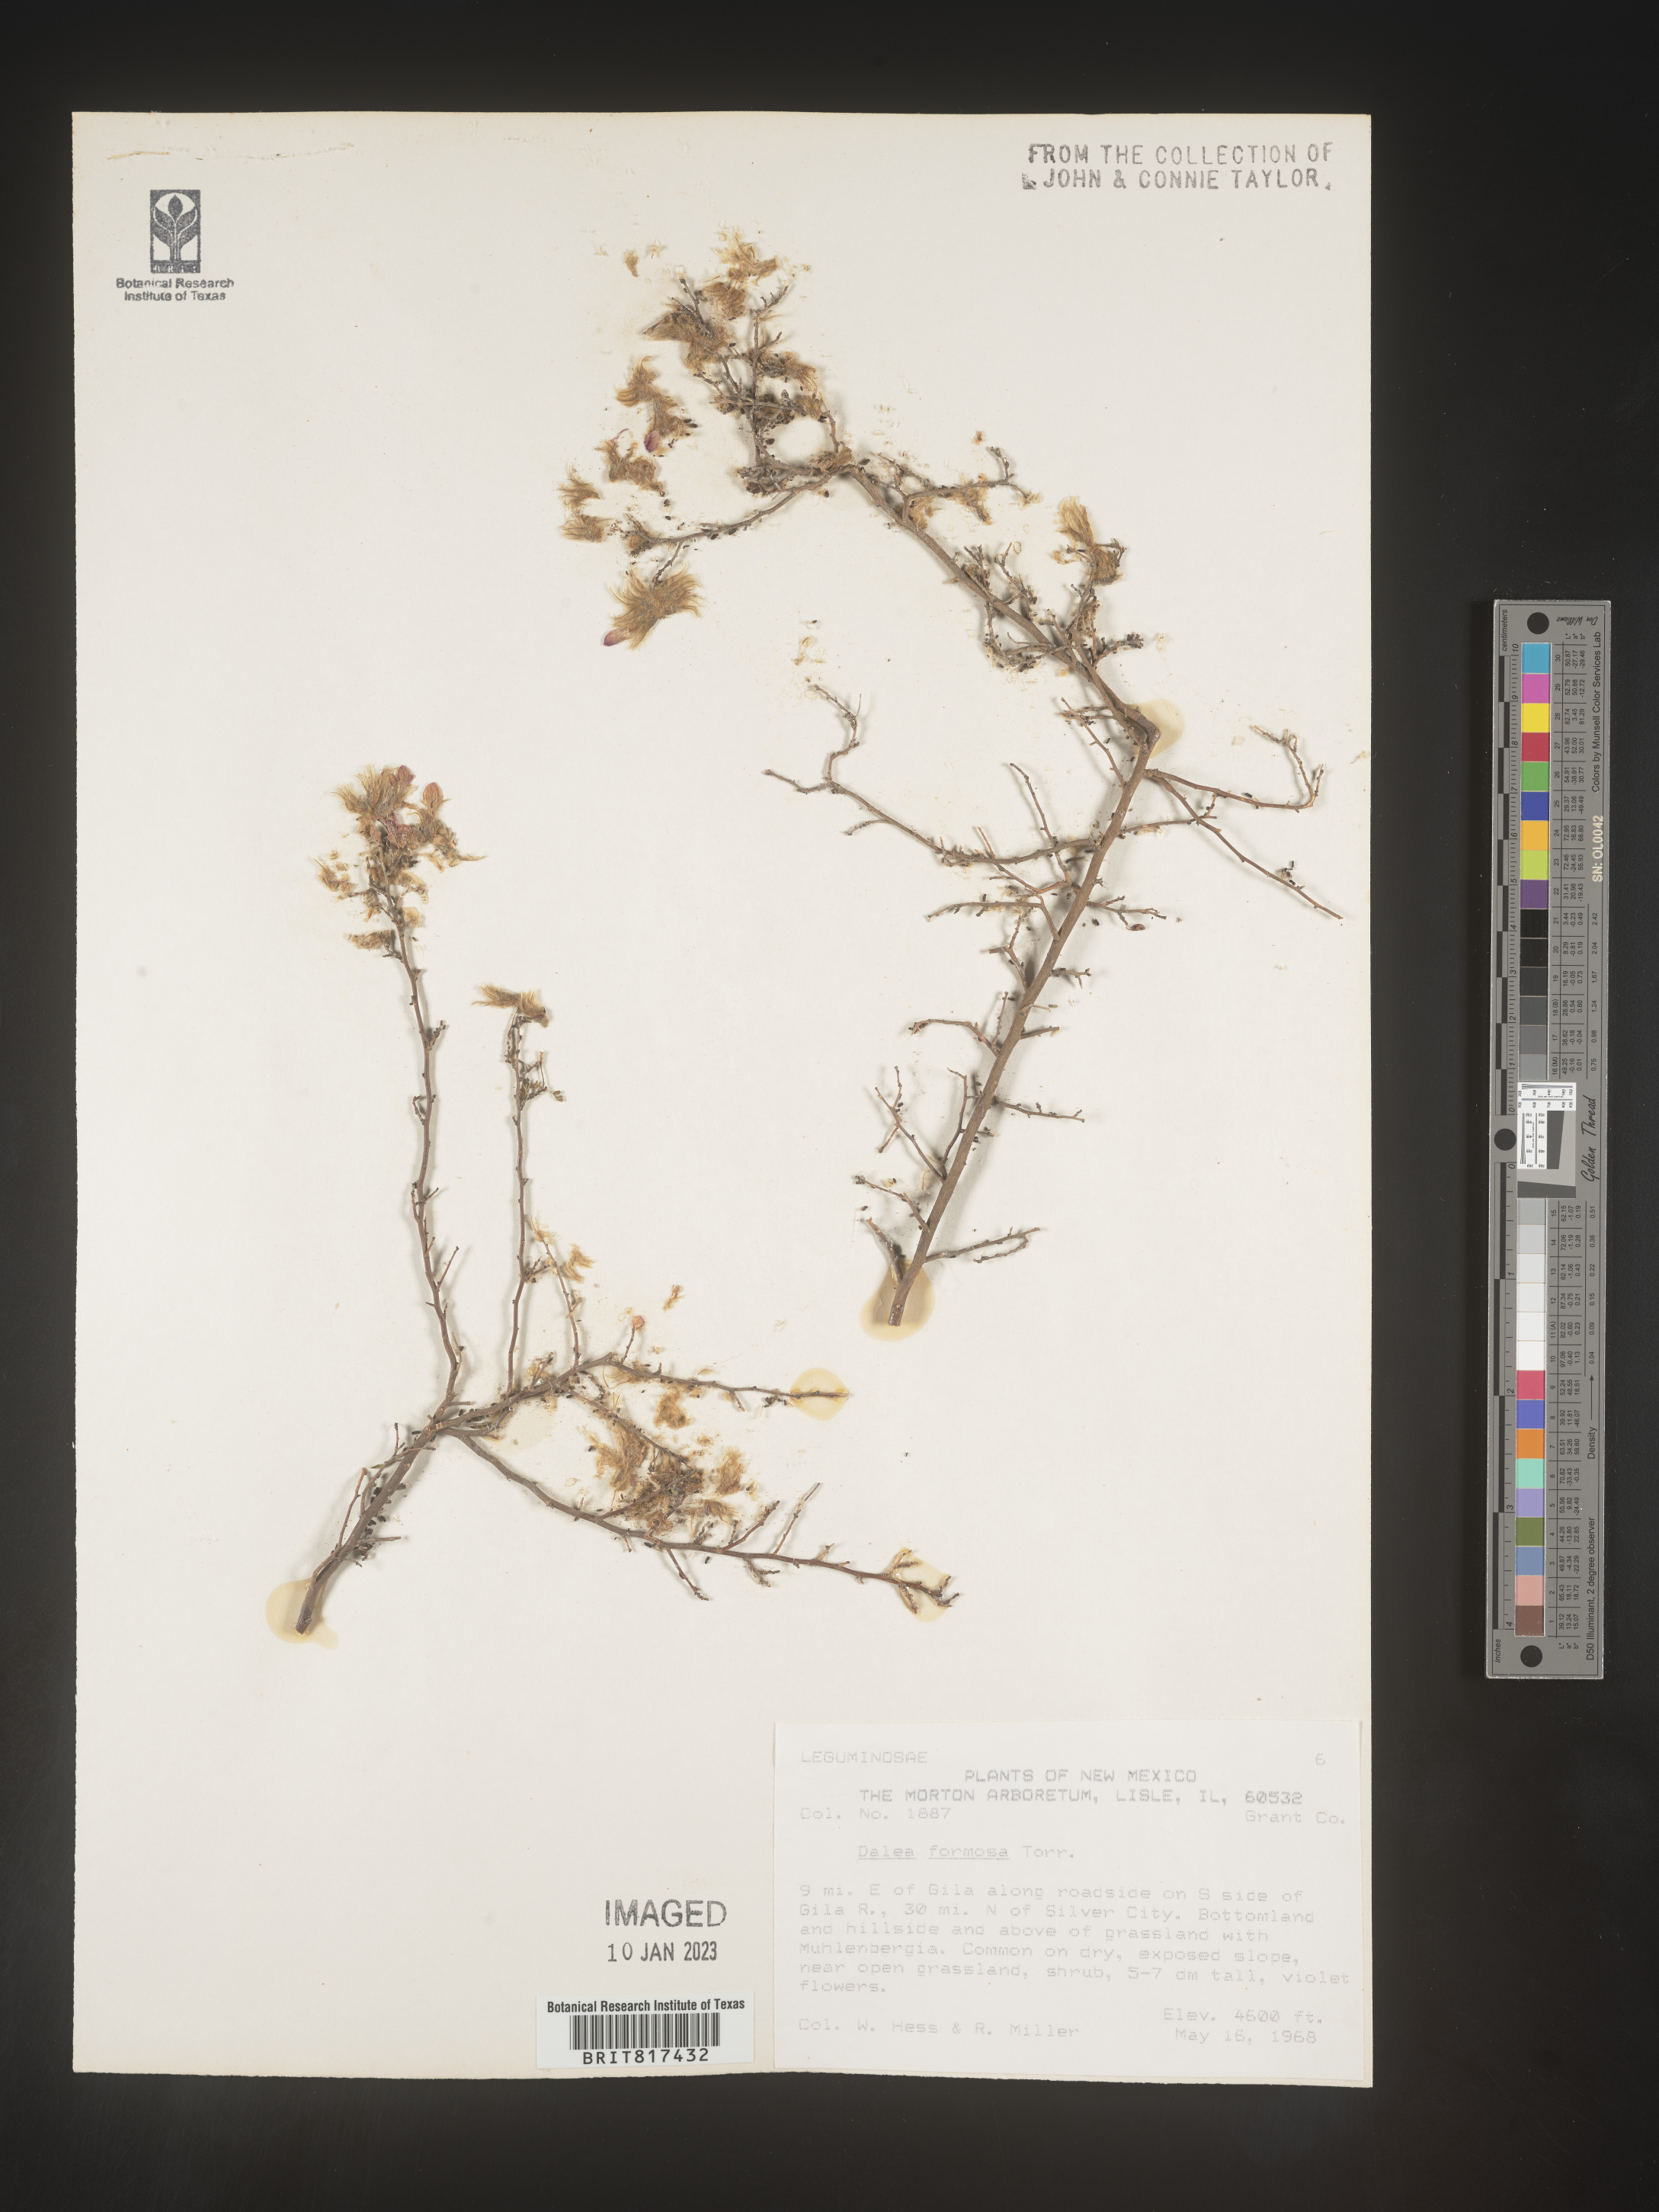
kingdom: Plantae
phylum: Tracheophyta
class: Magnoliopsida
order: Fabales
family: Fabaceae
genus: Dalea
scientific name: Dalea formosa
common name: Feather-plume dalea
